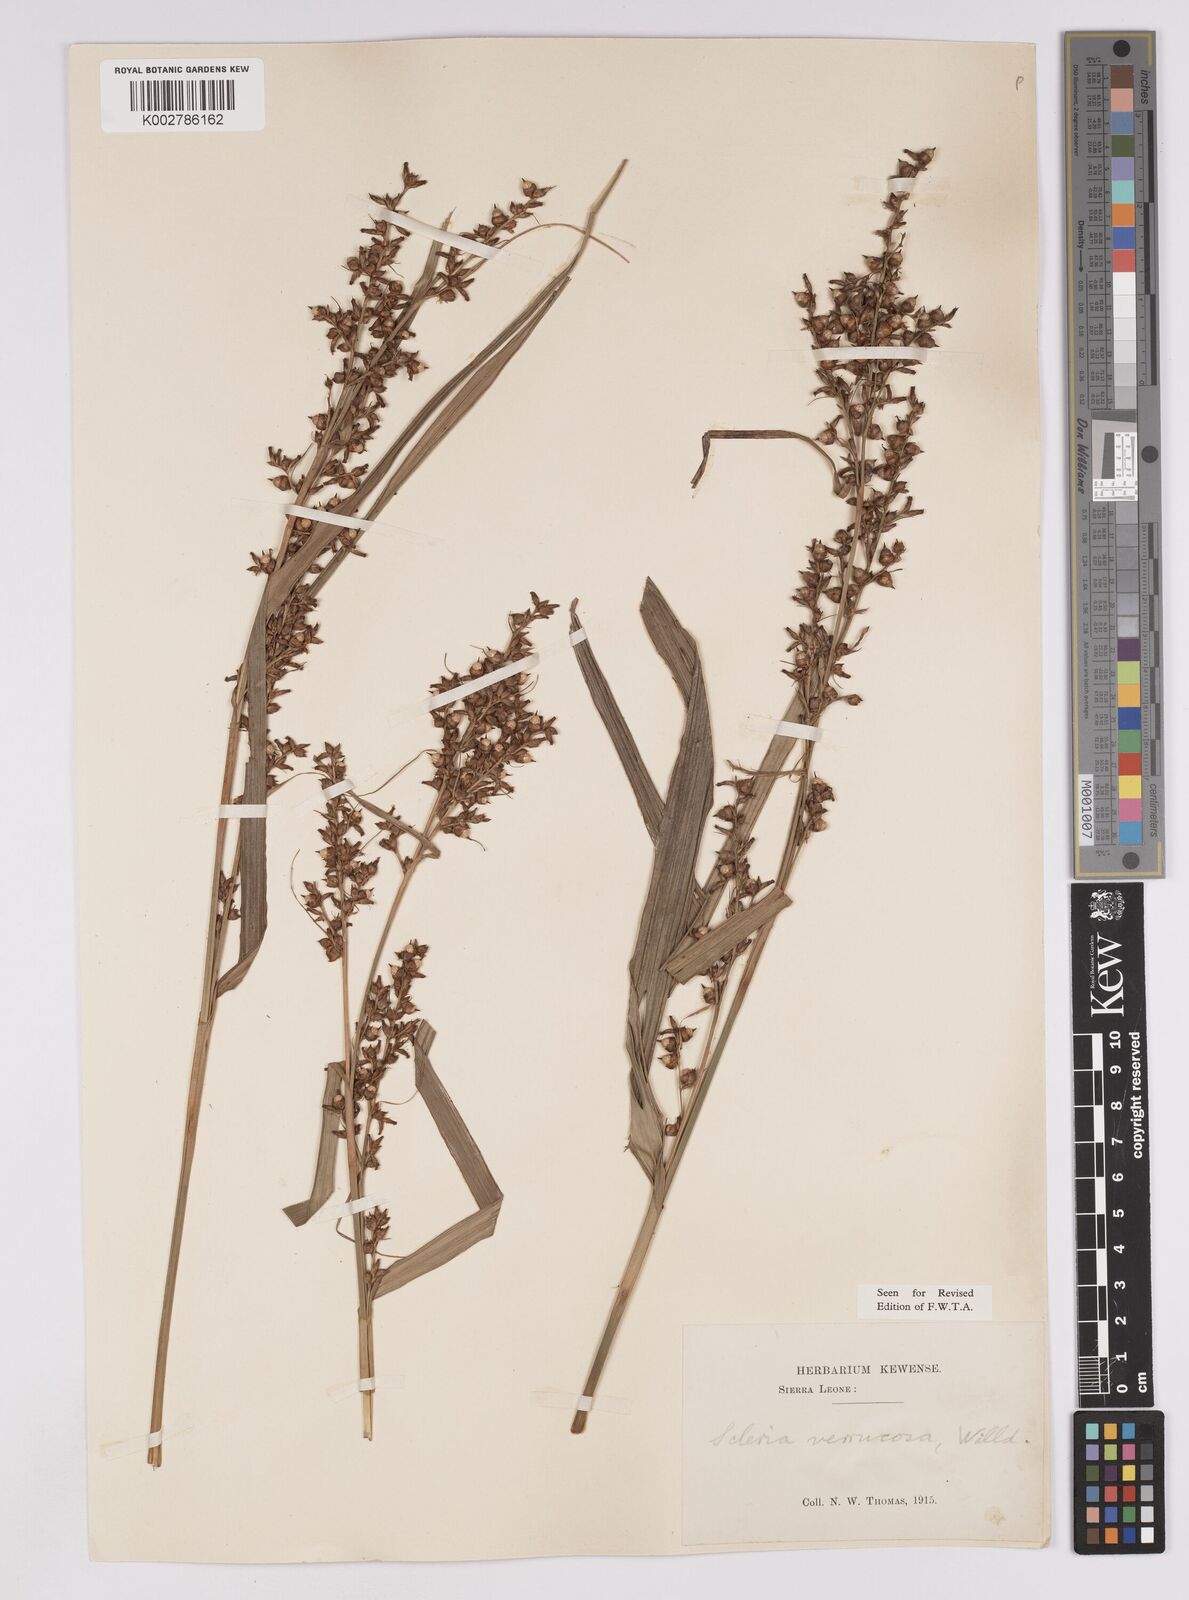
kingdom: Plantae
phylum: Tracheophyta
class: Liliopsida
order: Poales
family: Cyperaceae
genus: Scleria
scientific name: Scleria verrucosa
